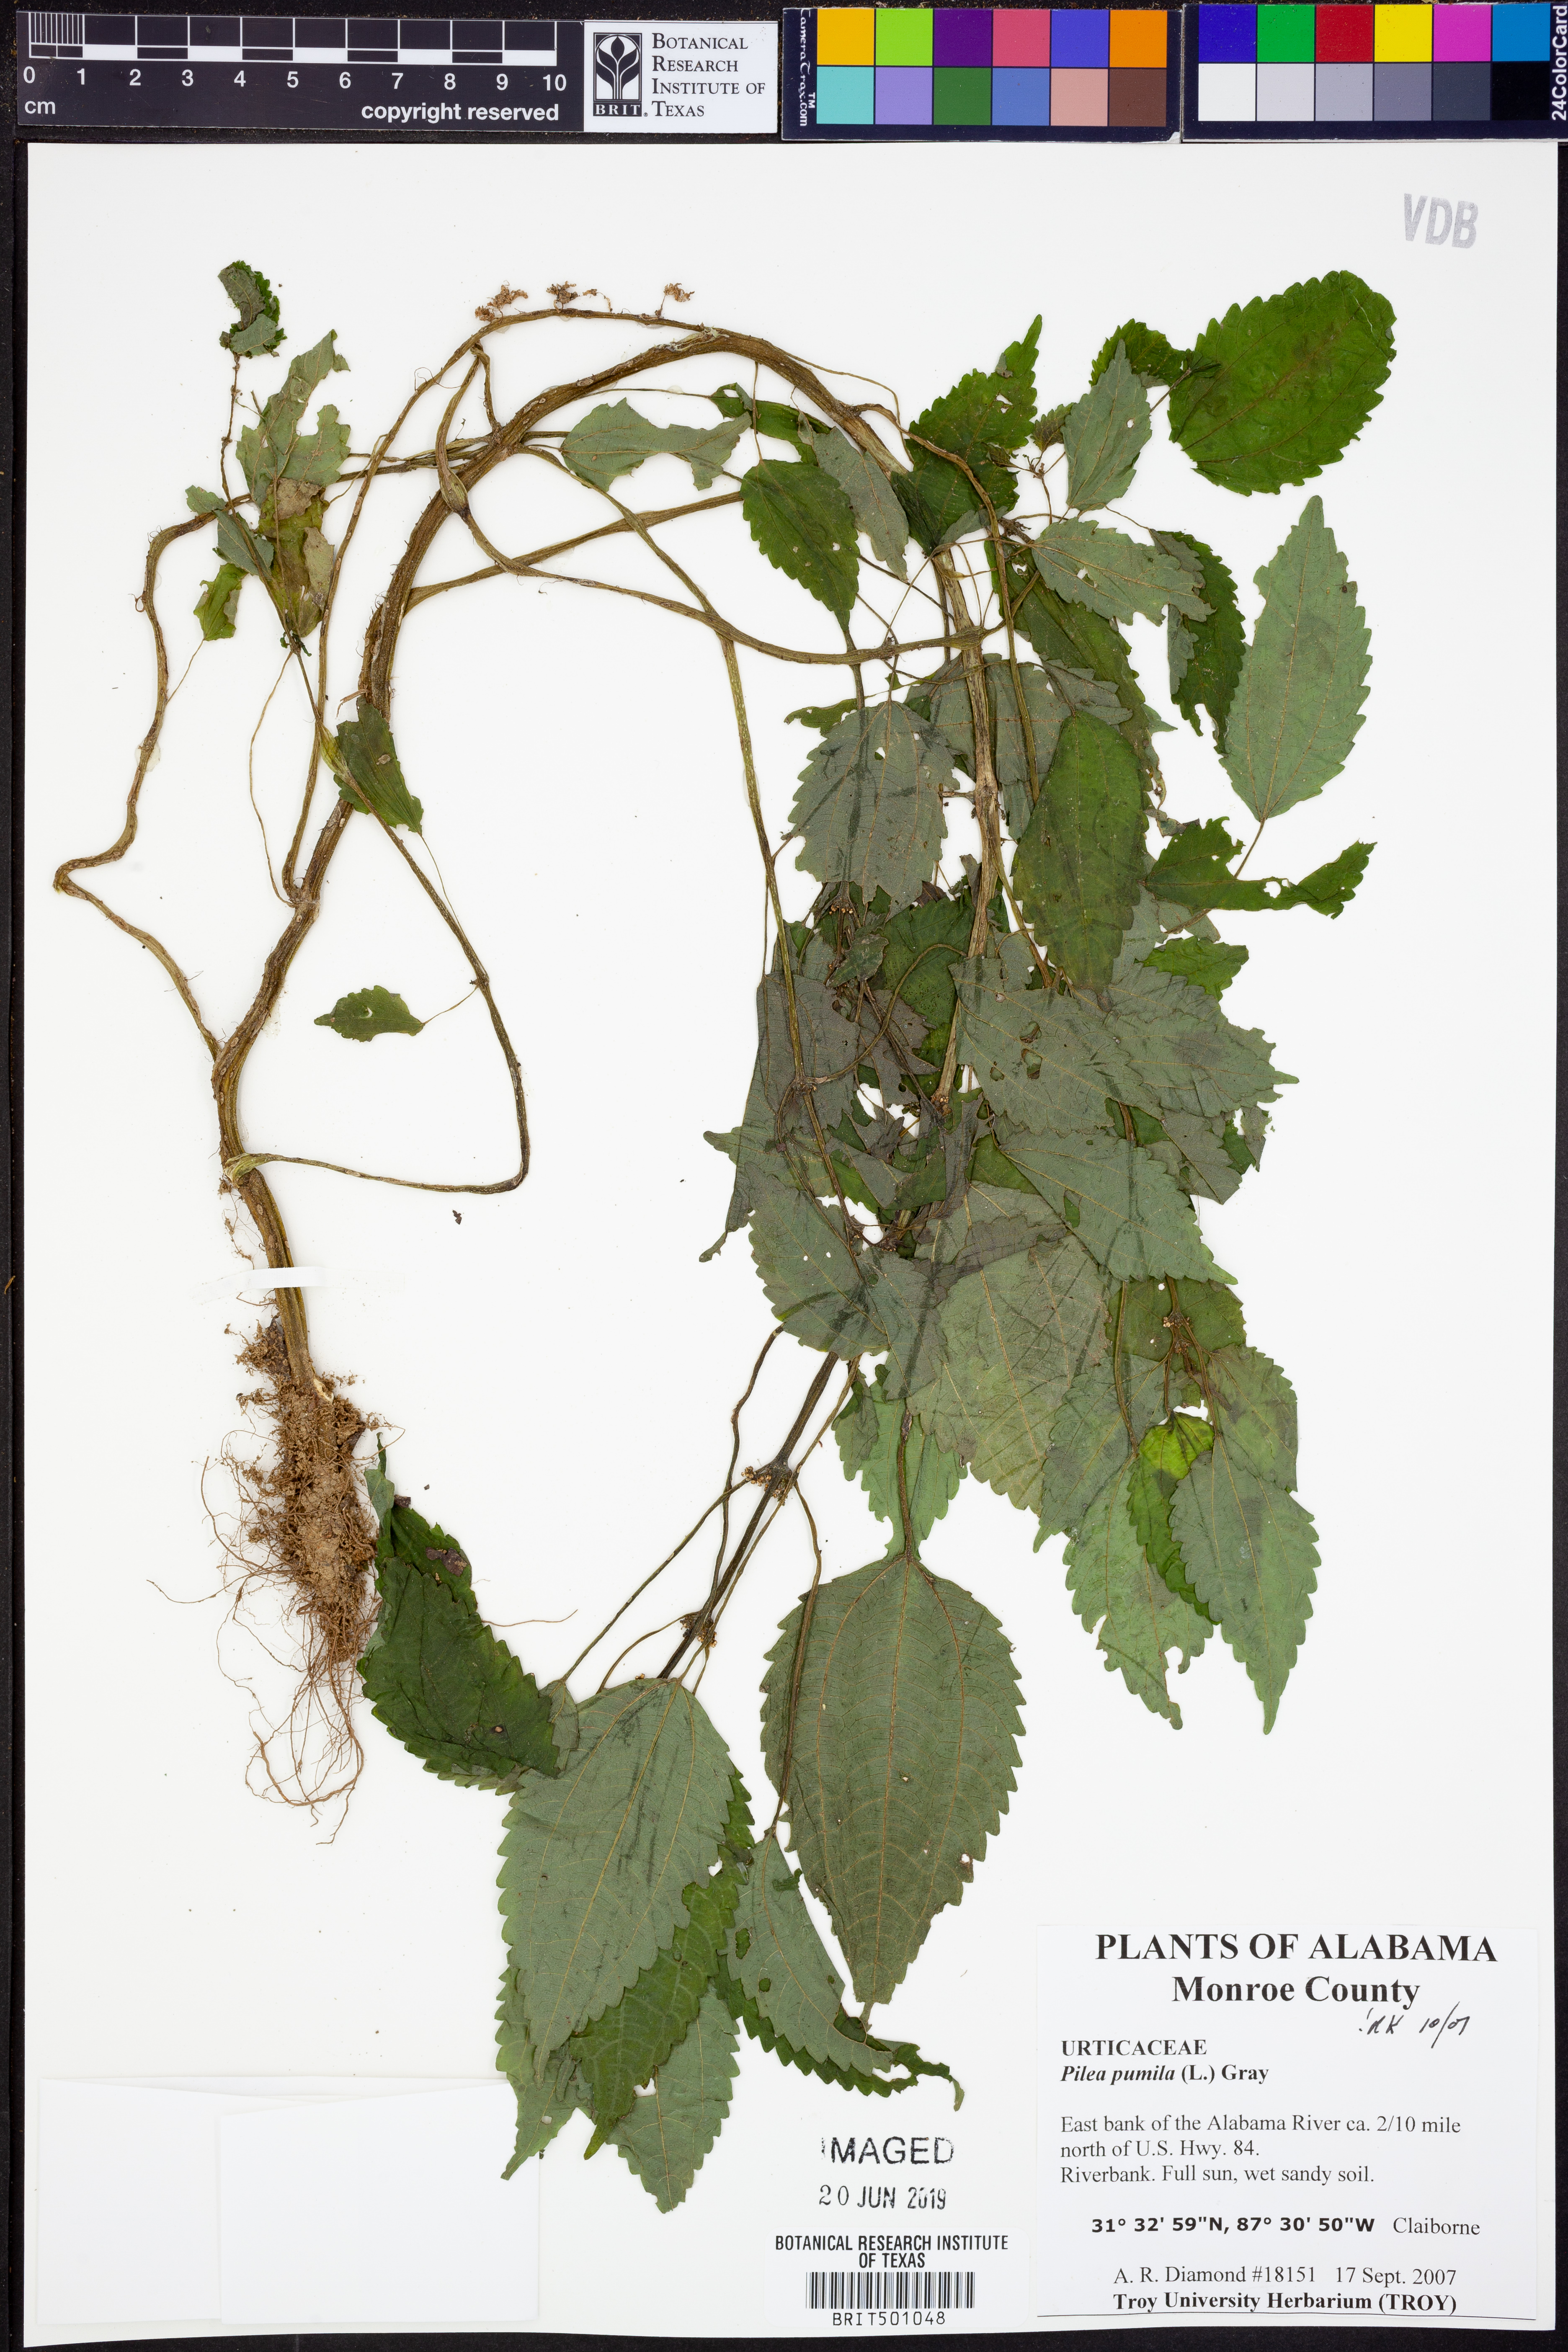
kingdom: Plantae
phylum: Tracheophyta
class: Magnoliopsida
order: Rosales
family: Urticaceae
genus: Pilea
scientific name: Pilea pumila
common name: Clearweed
